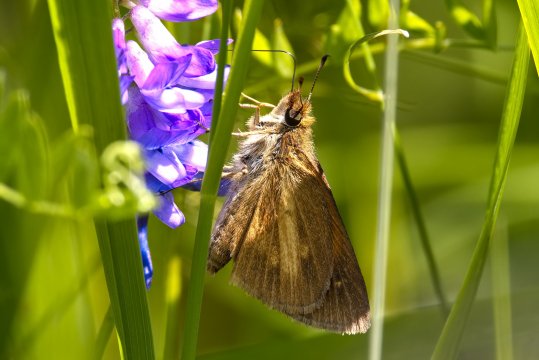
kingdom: Animalia
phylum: Arthropoda
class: Insecta
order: Lepidoptera
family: Hesperiidae
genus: Poanes
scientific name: Poanes viator
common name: Broad-winged Skipper
